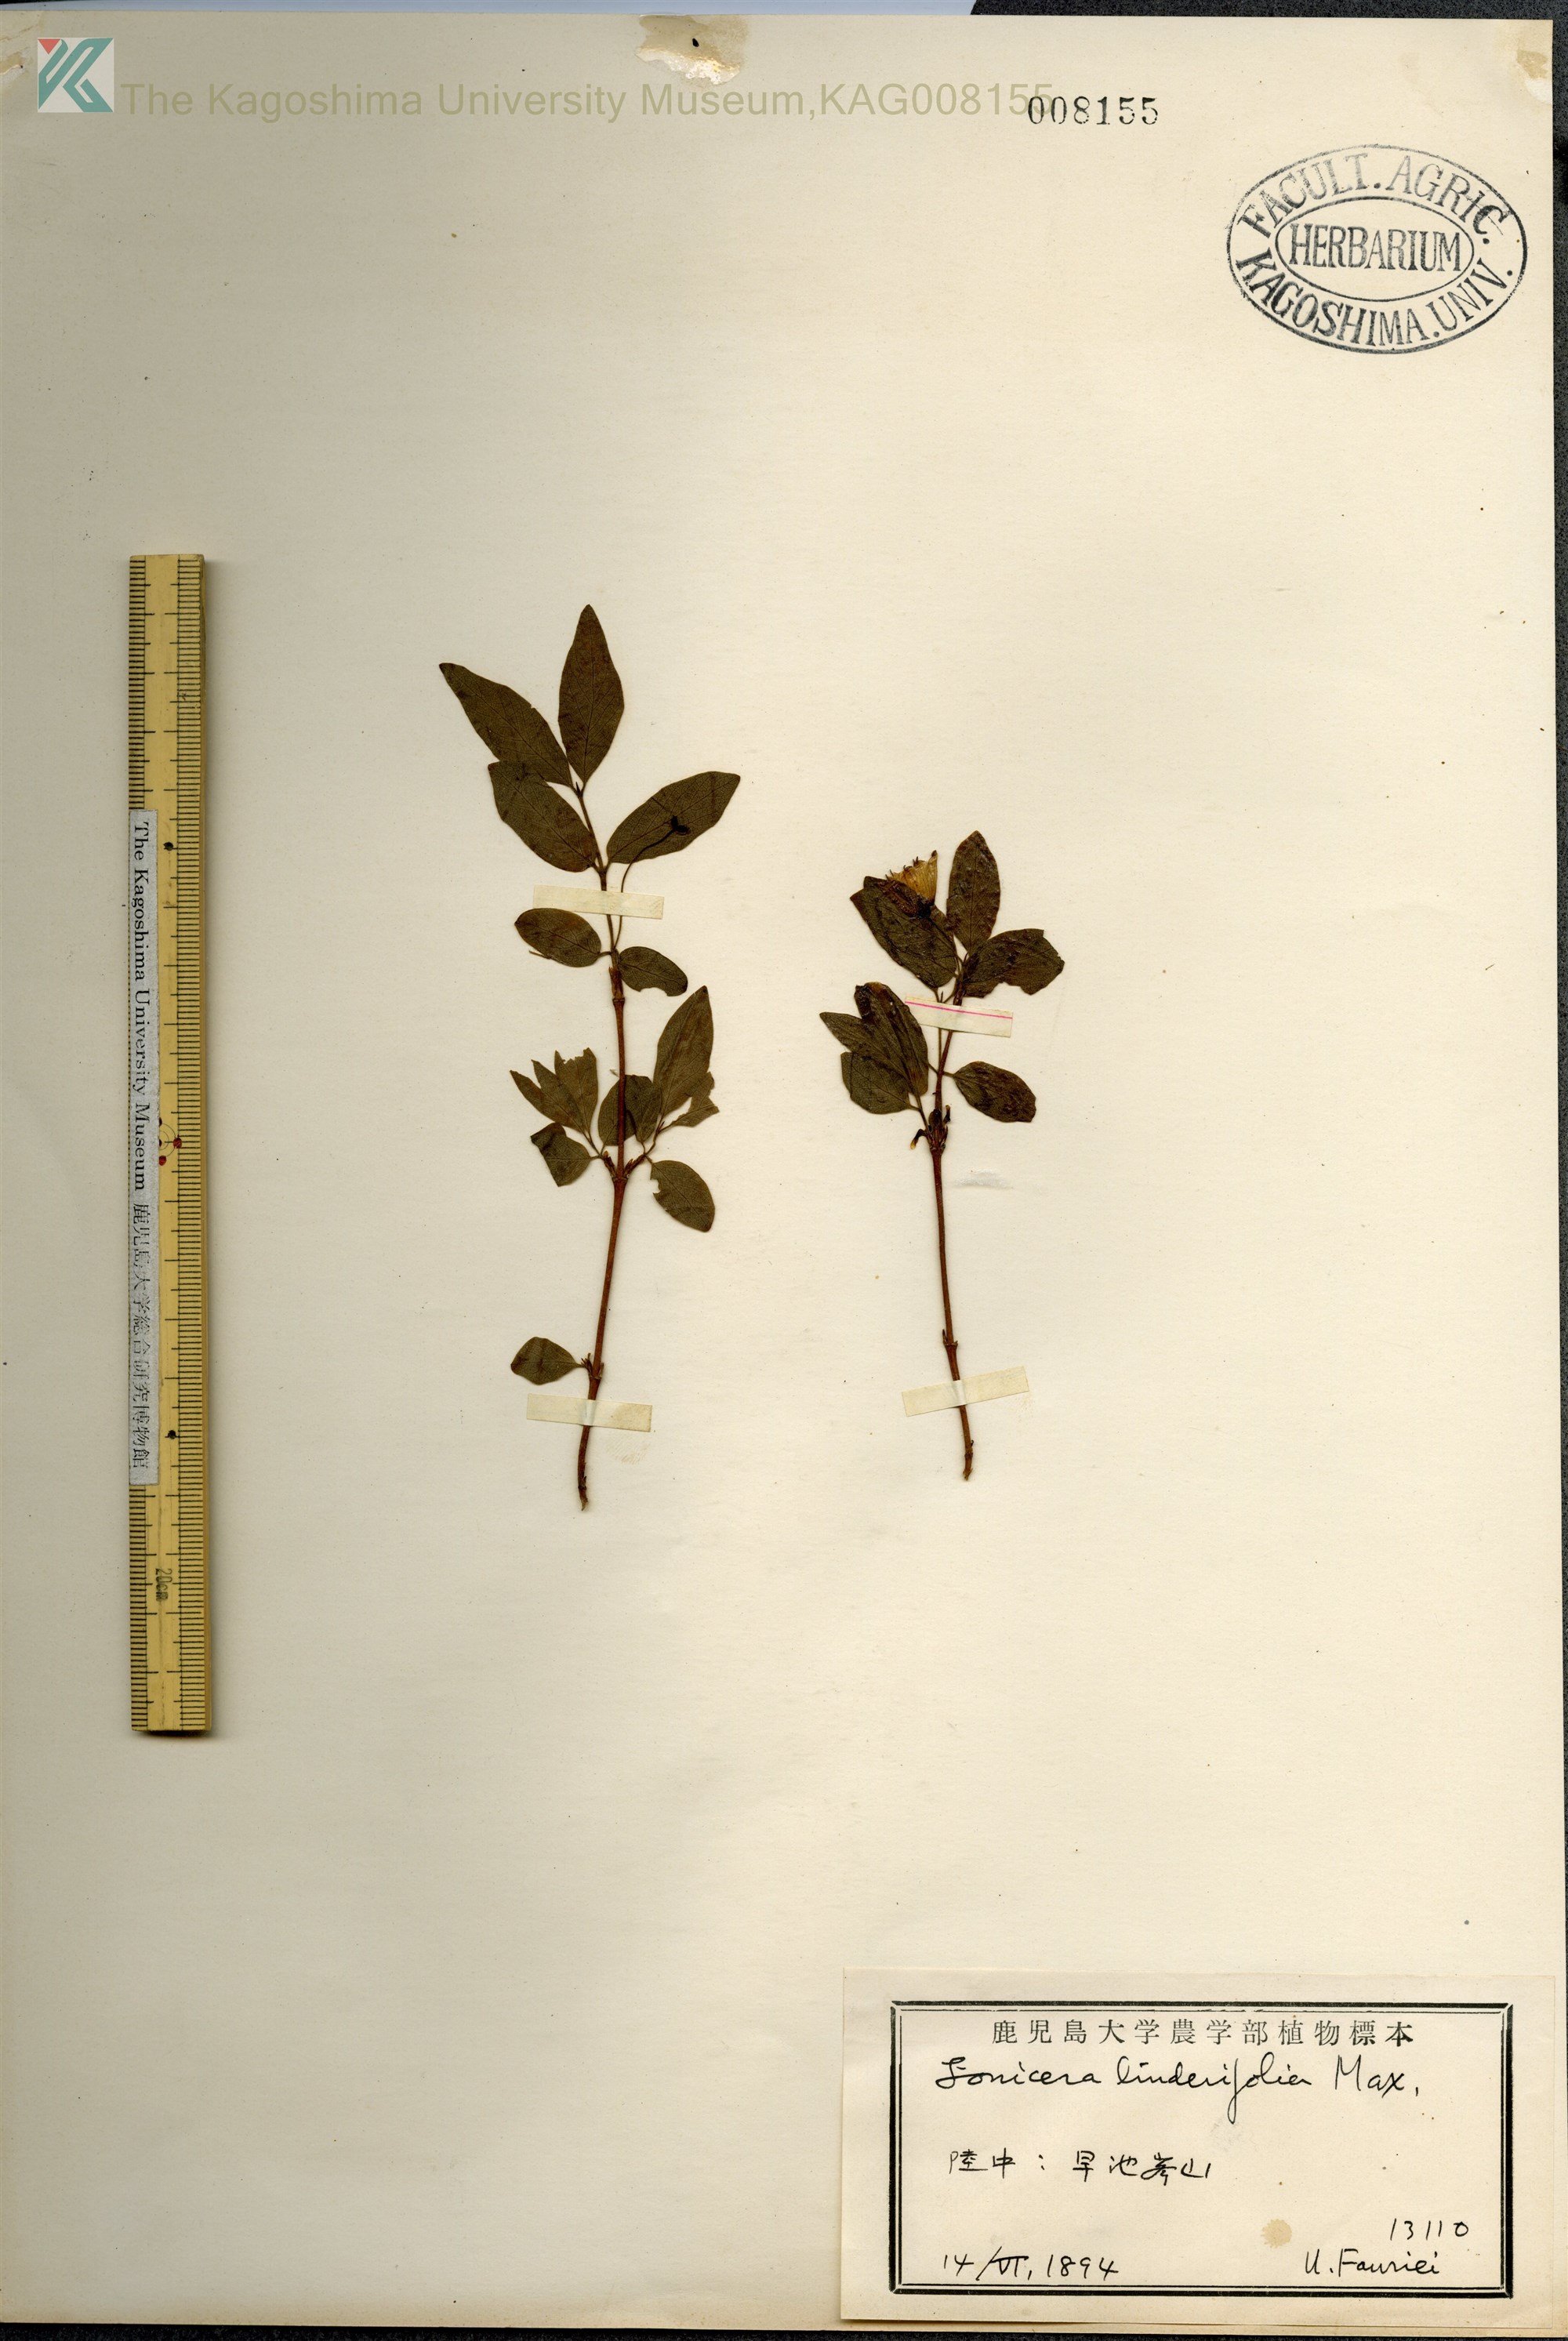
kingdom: Plantae
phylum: Tracheophyta
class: Magnoliopsida
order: Dipsacales
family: Caprifoliaceae
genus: Lonicera
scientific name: Lonicera linderifolia
